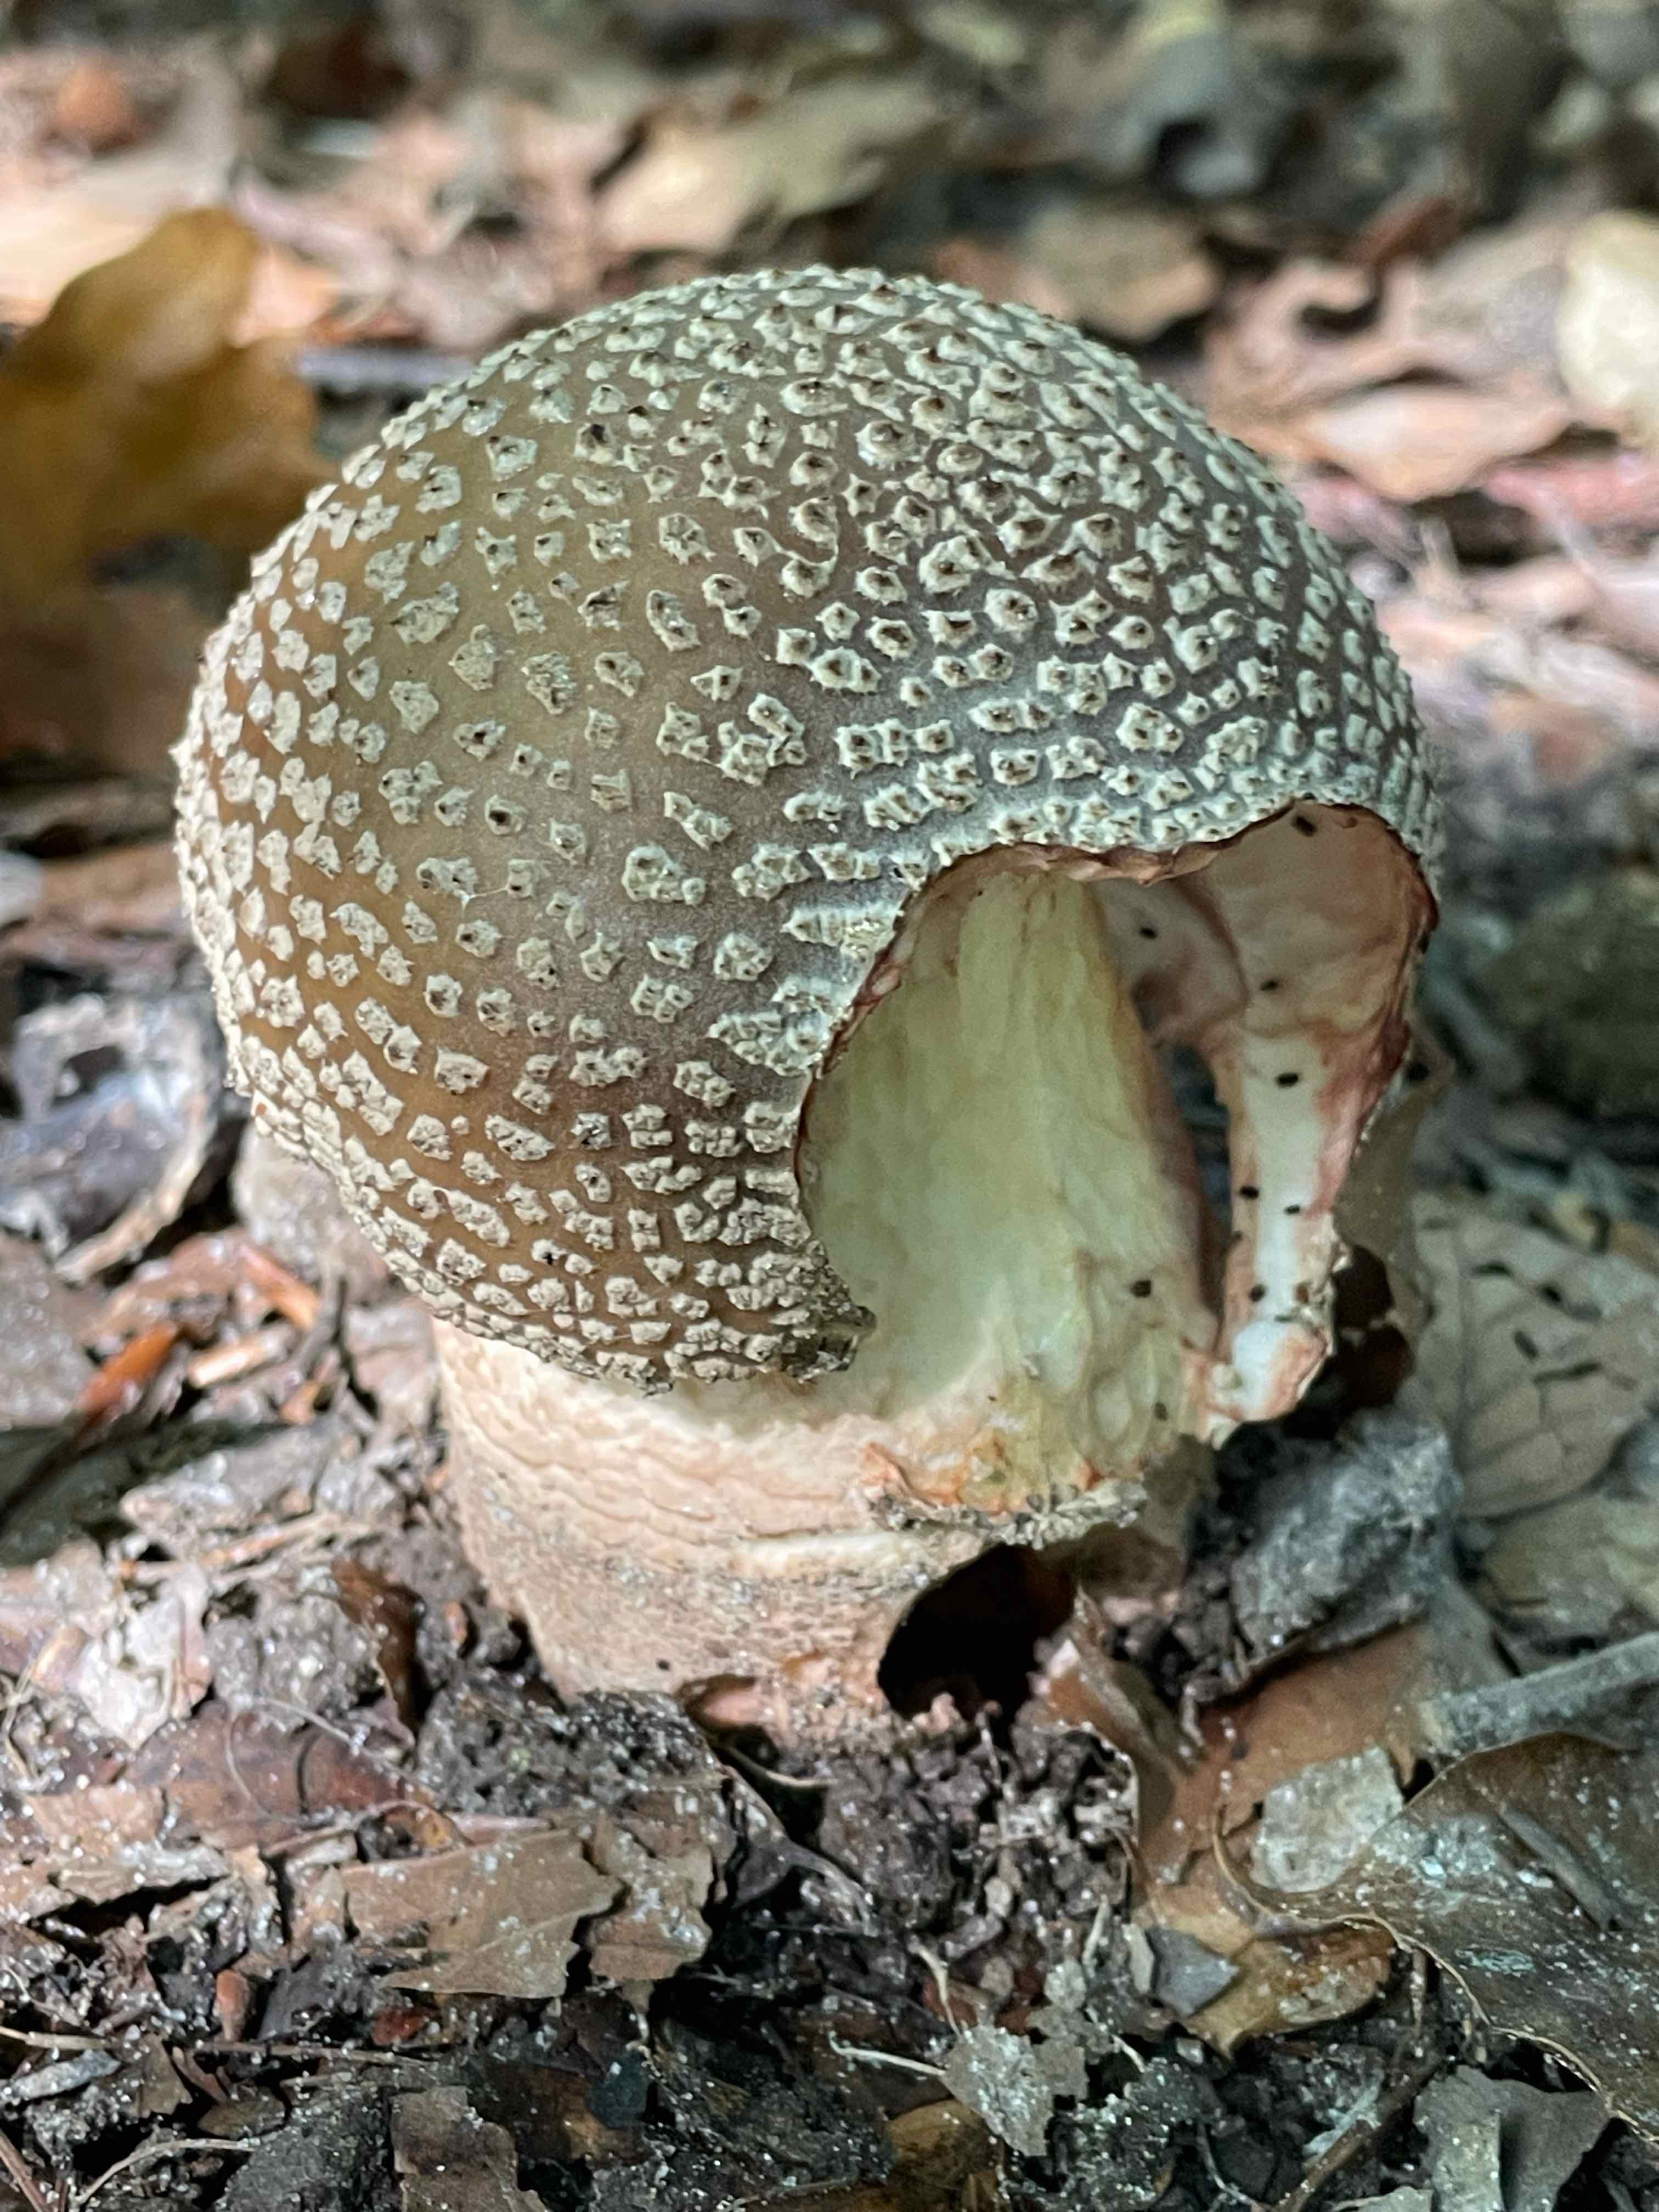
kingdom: Fungi
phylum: Basidiomycota
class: Agaricomycetes
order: Agaricales
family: Amanitaceae
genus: Amanita
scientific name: Amanita rubescens
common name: rødmende fluesvamp
